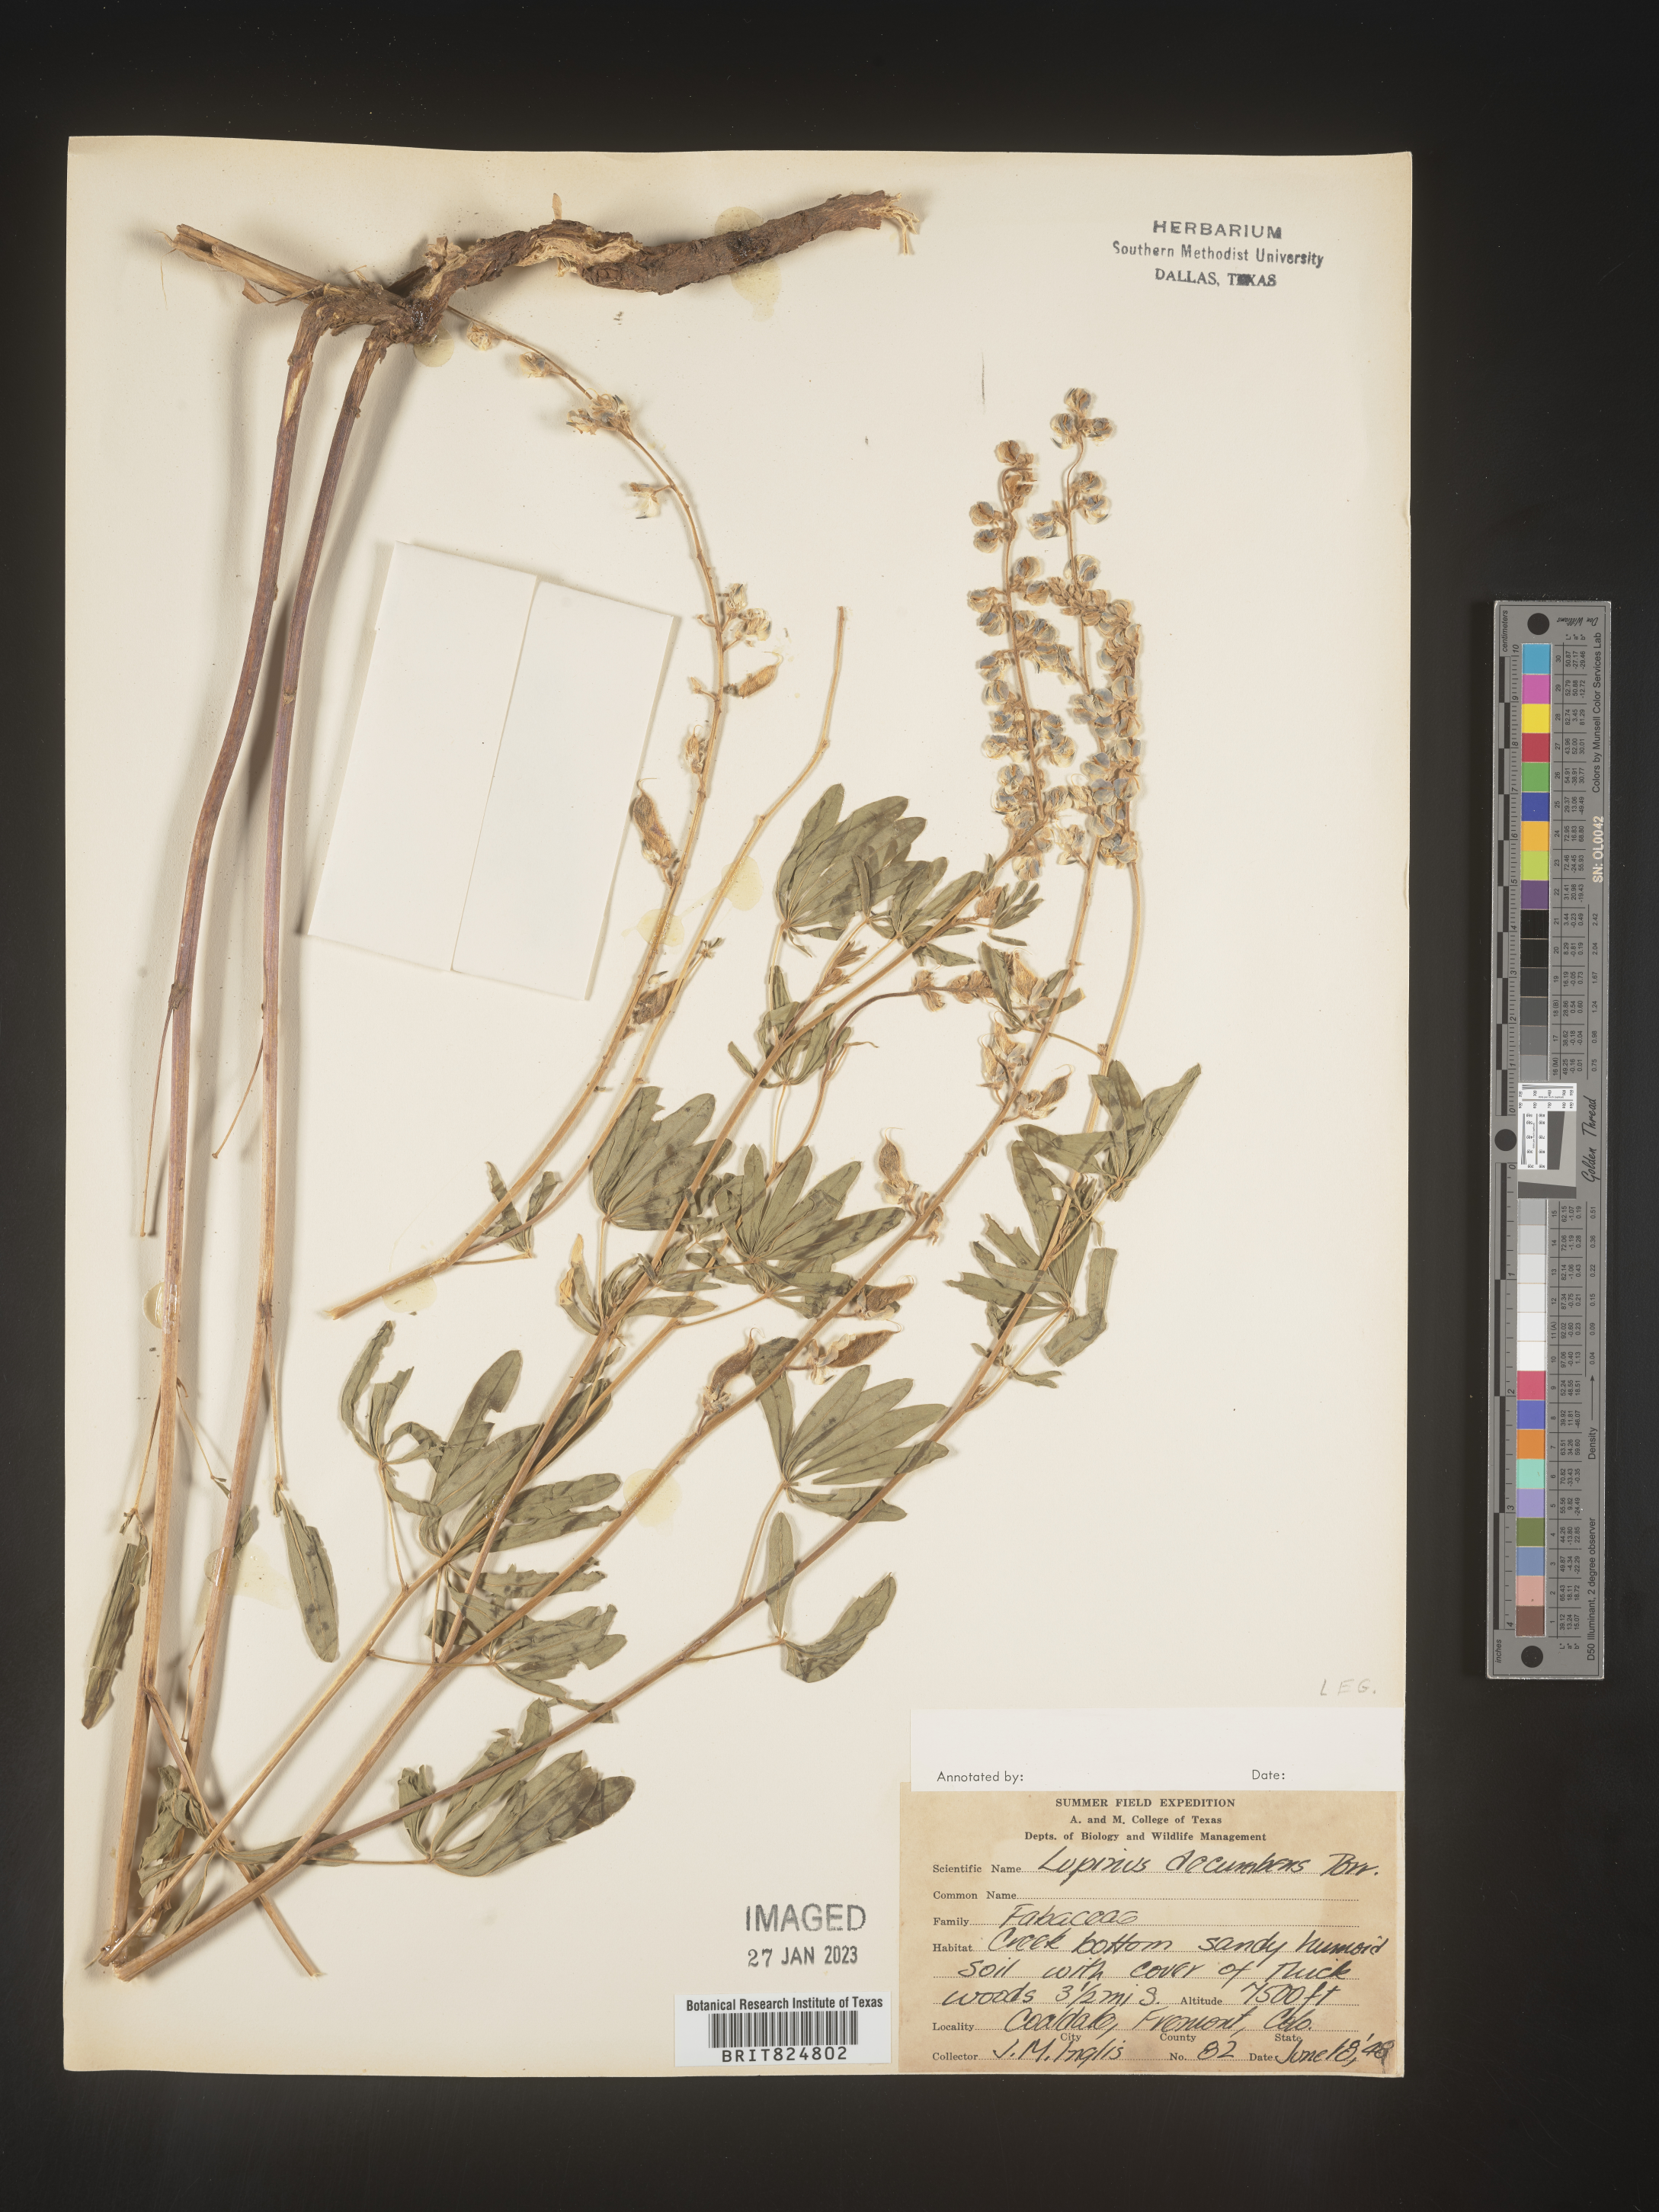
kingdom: Plantae
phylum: Tracheophyta
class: Magnoliopsida
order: Fabales
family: Fabaceae
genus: Lupinus
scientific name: Lupinus
